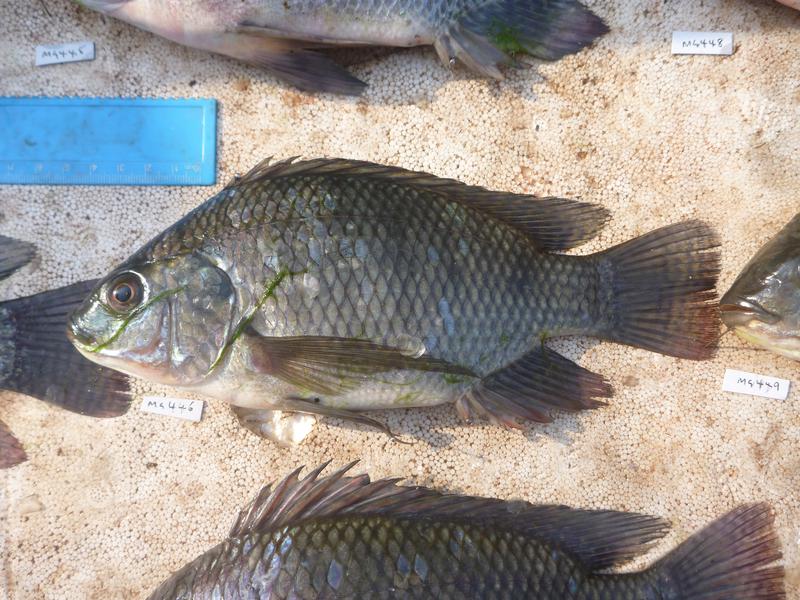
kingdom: Animalia
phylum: Chordata
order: Perciformes
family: Cichlidae
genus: Oreochromis
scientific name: Oreochromis niloticus
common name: Nile tilapia
